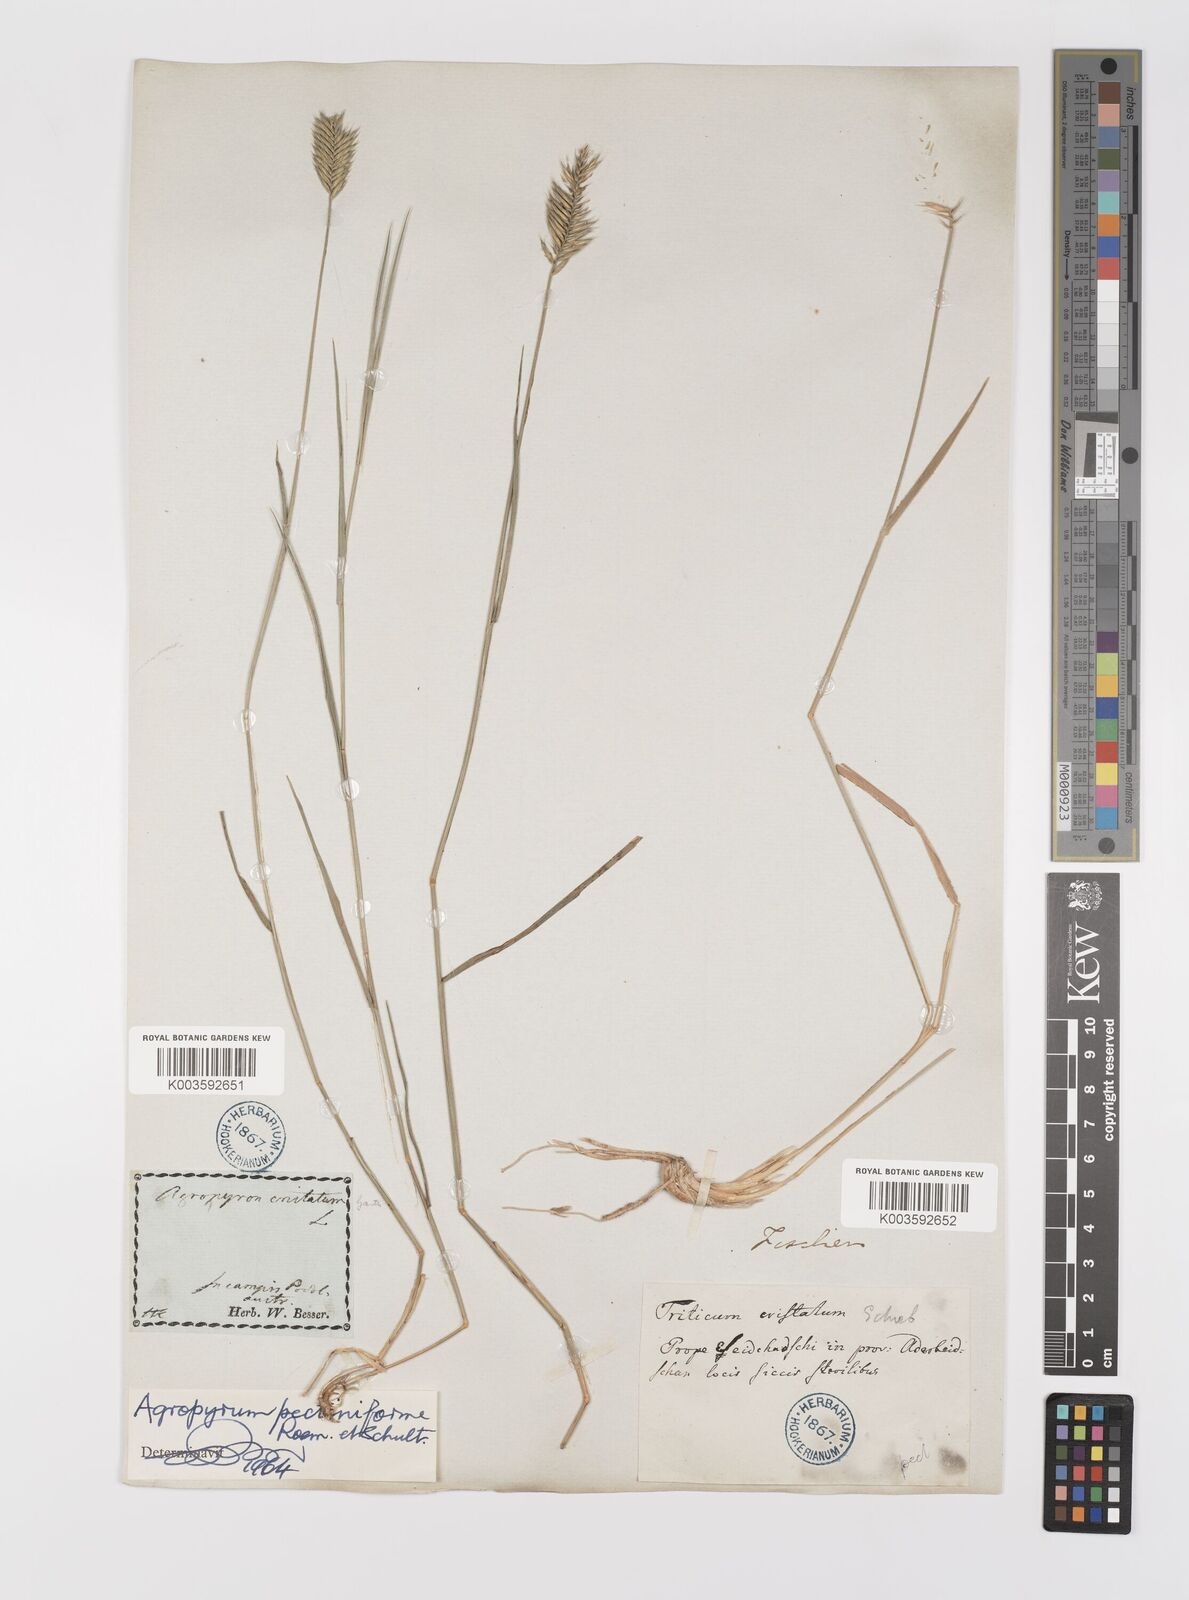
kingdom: Plantae
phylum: Tracheophyta
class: Liliopsida
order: Poales
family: Poaceae
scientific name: Poaceae
